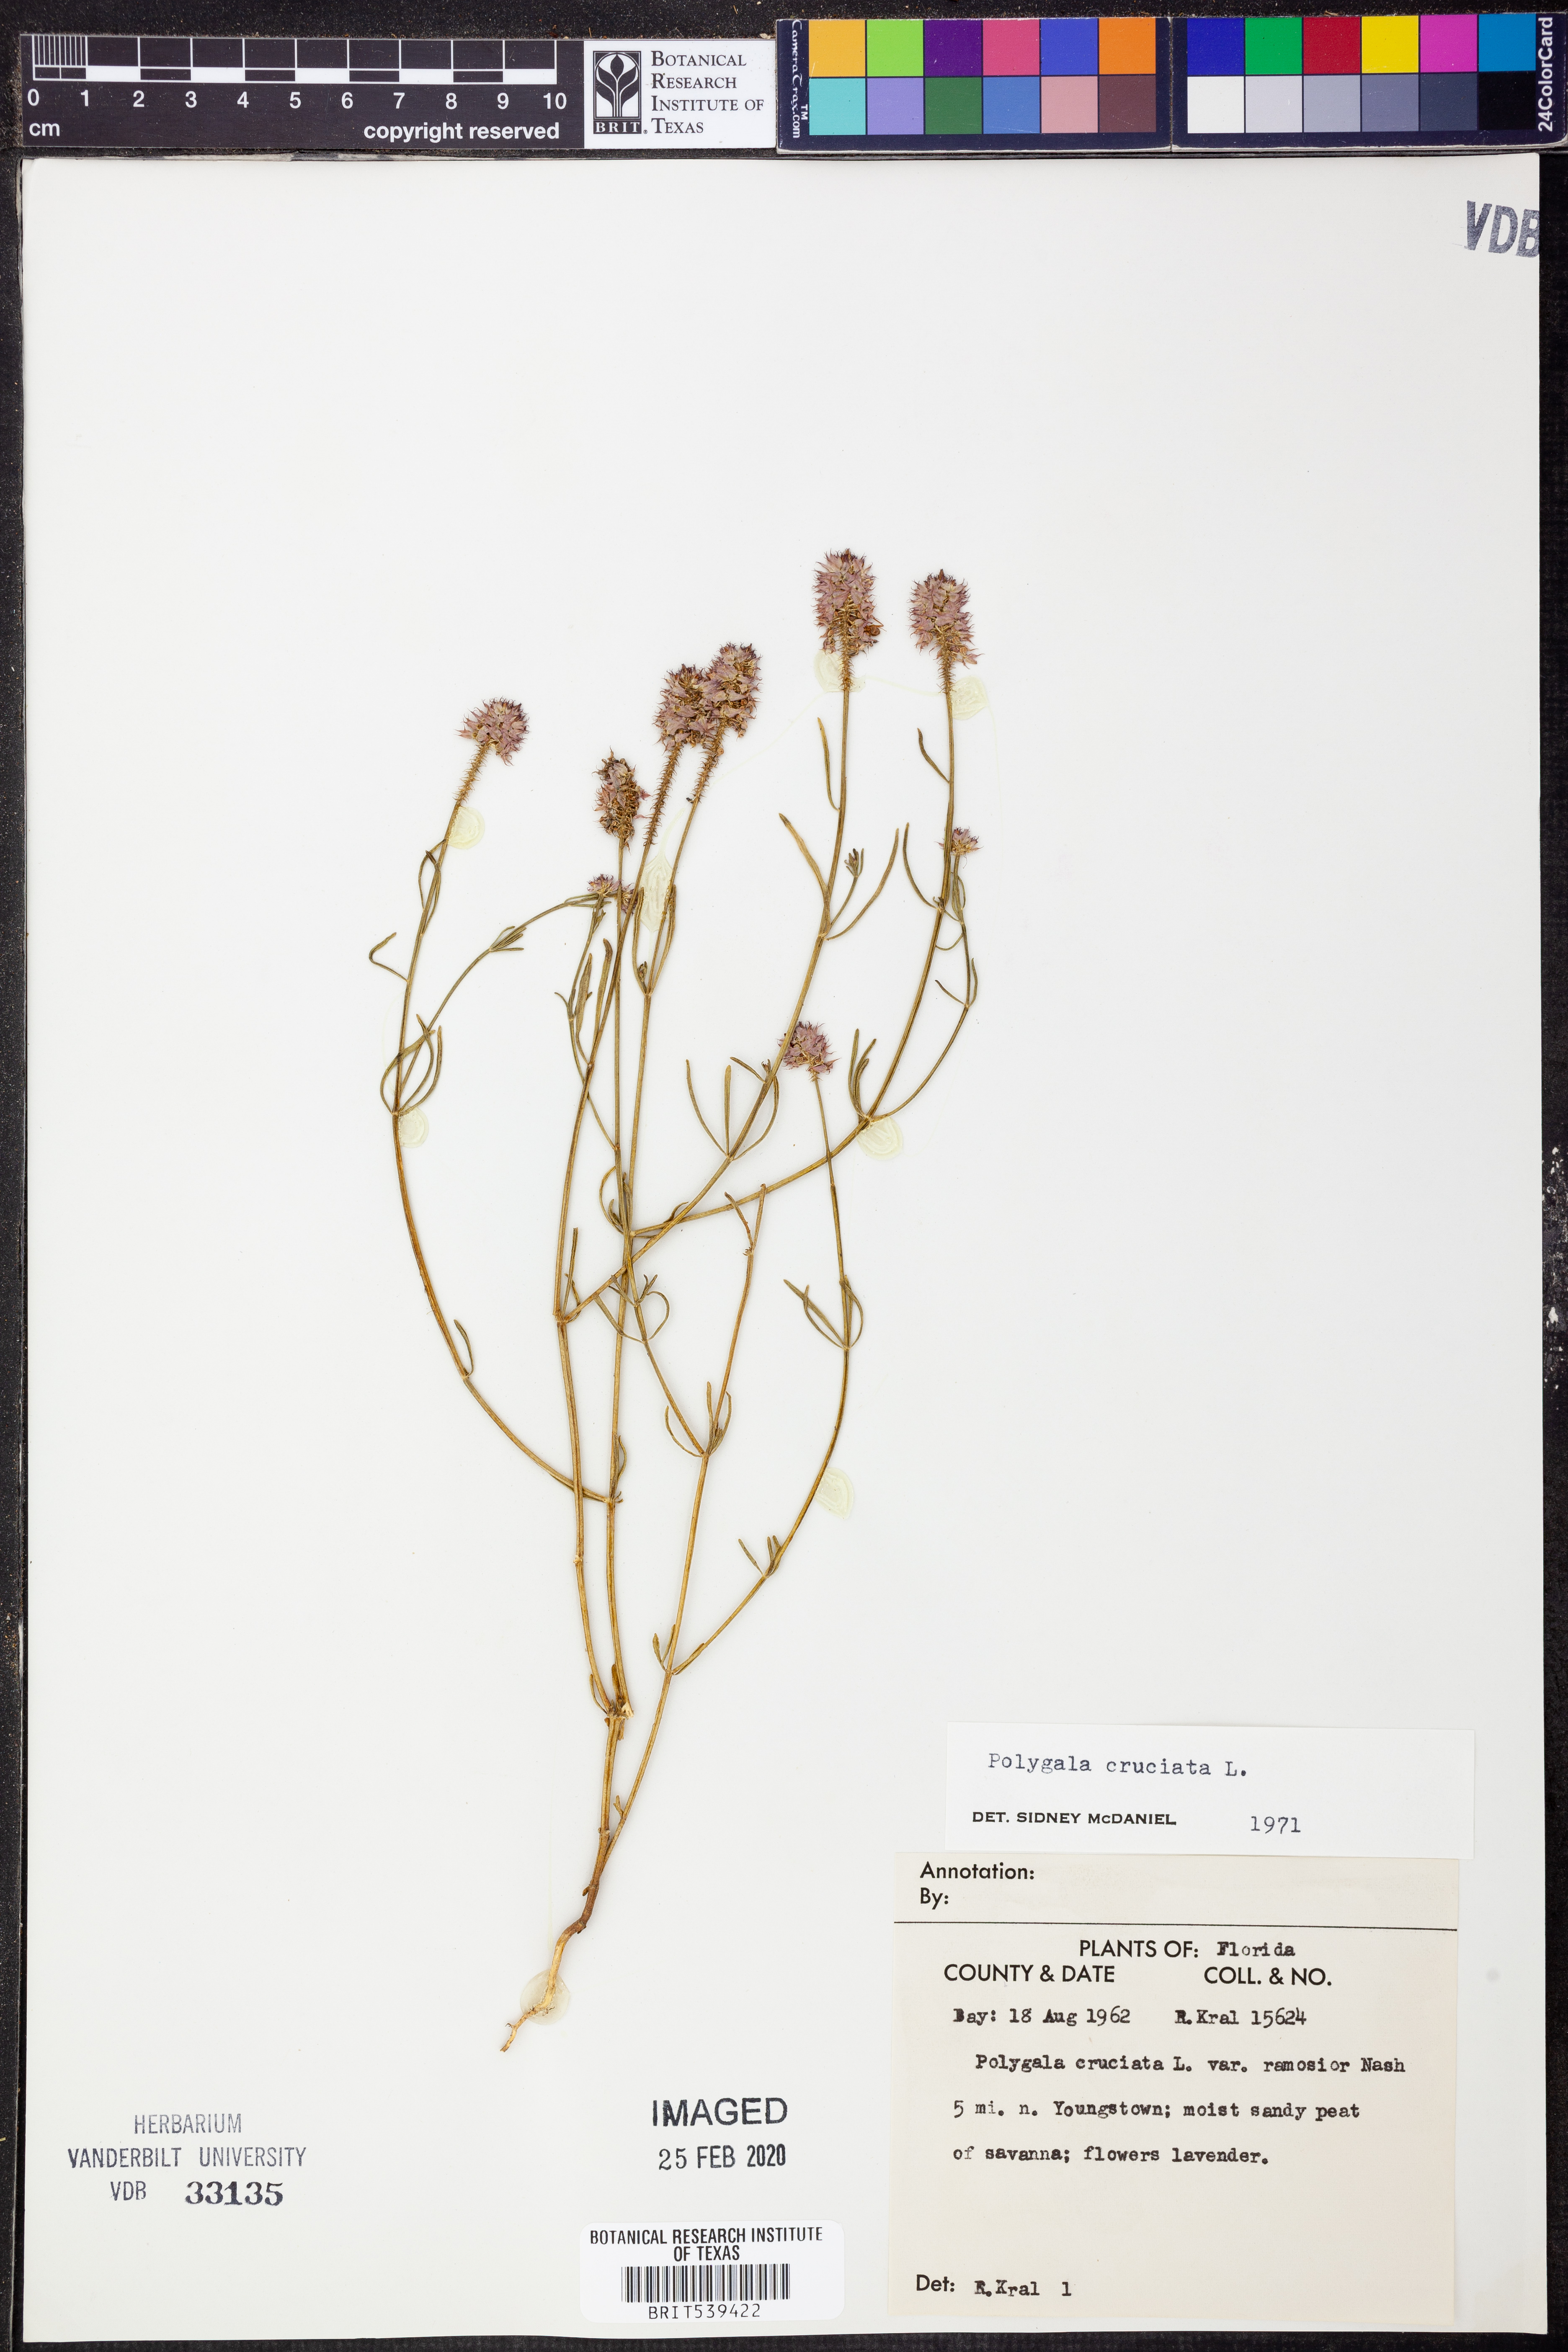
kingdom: Plantae
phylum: Tracheophyta
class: Magnoliopsida
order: Fabales
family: Polygalaceae
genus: Polygala
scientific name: Polygala cruciata
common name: Drumheads
